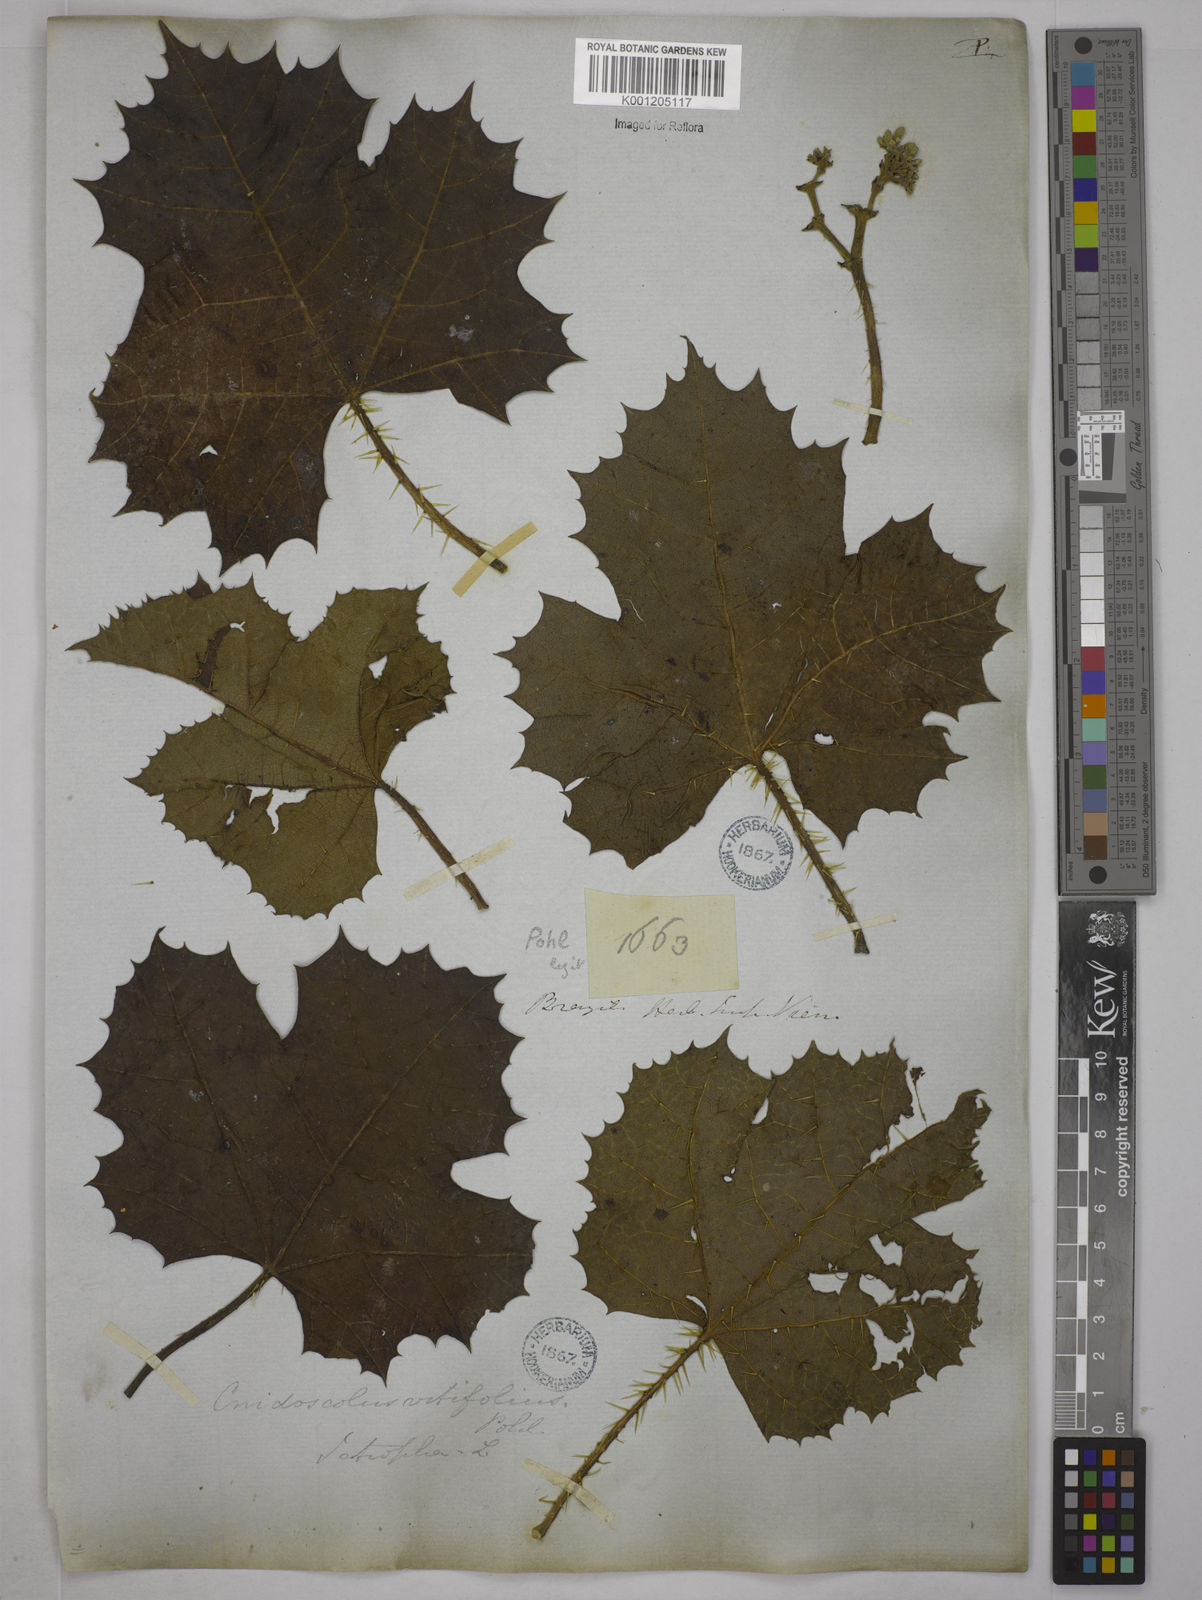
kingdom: Plantae
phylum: Tracheophyta
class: Magnoliopsida
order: Malpighiales
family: Euphorbiaceae
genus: Cnidoscolus
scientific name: Cnidoscolus vitifolius
